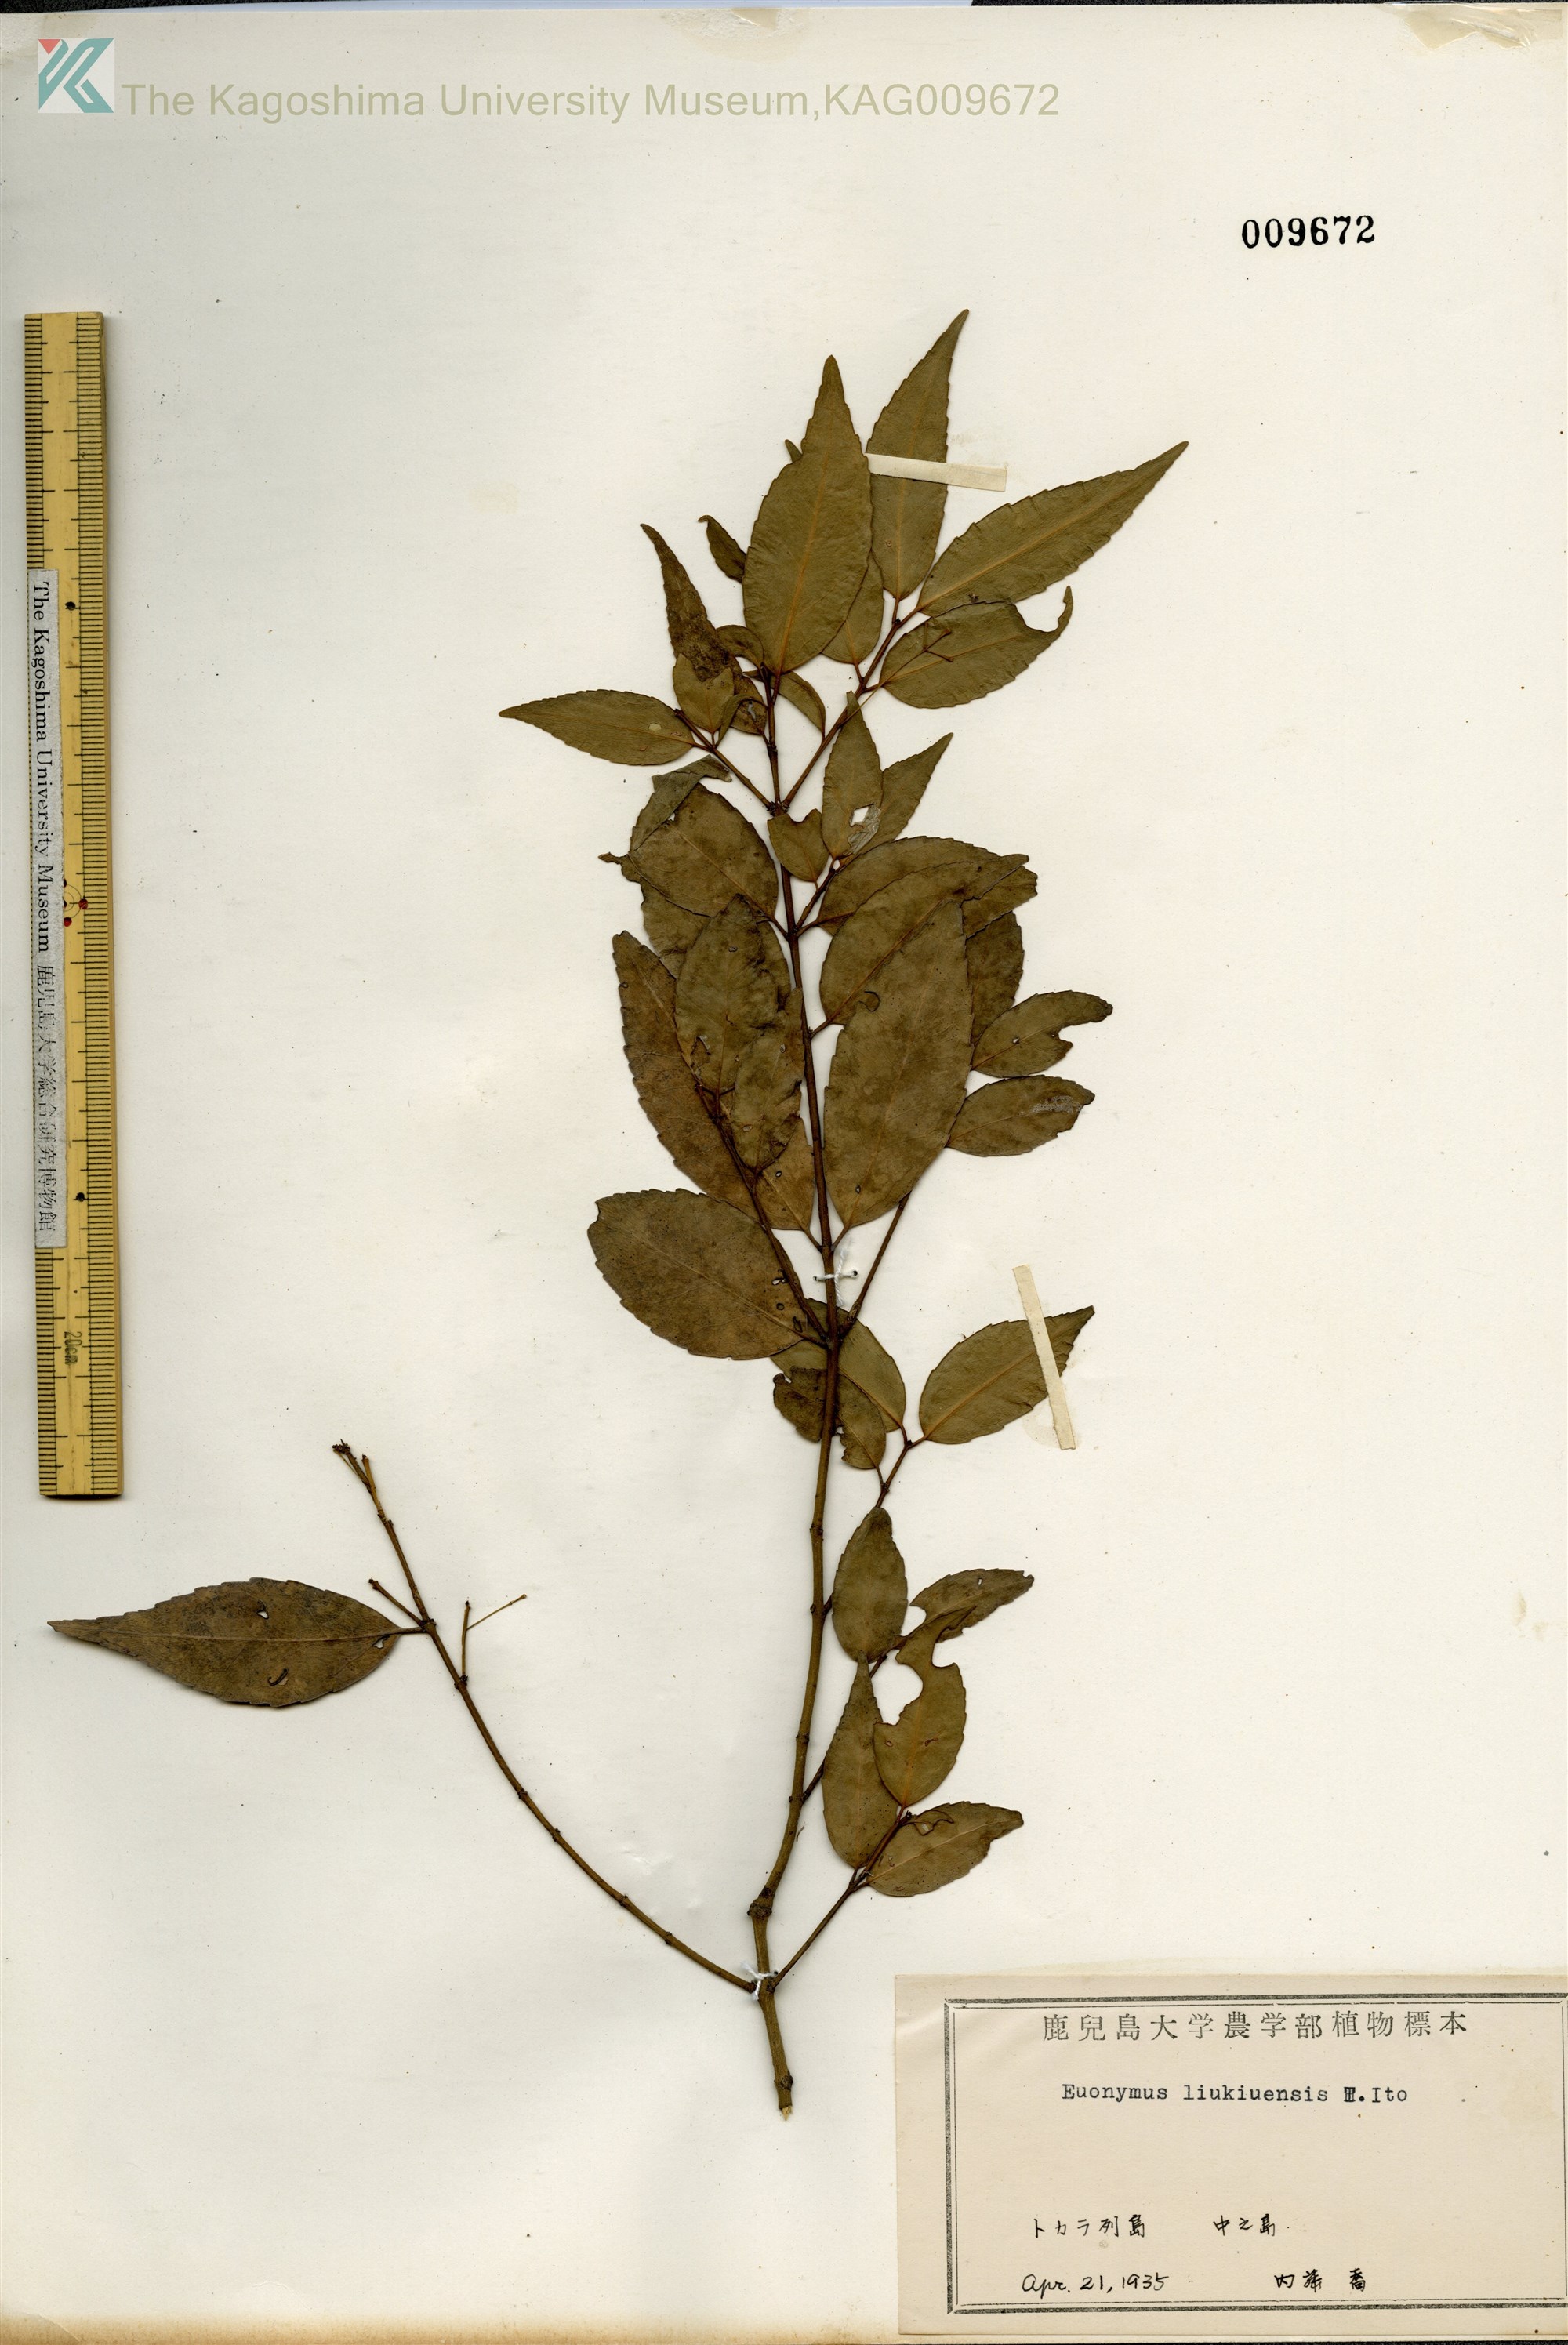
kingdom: Plantae
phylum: Tracheophyta
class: Magnoliopsida
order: Celastrales
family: Celastraceae
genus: Euonymus
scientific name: Euonymus lutchuensis
